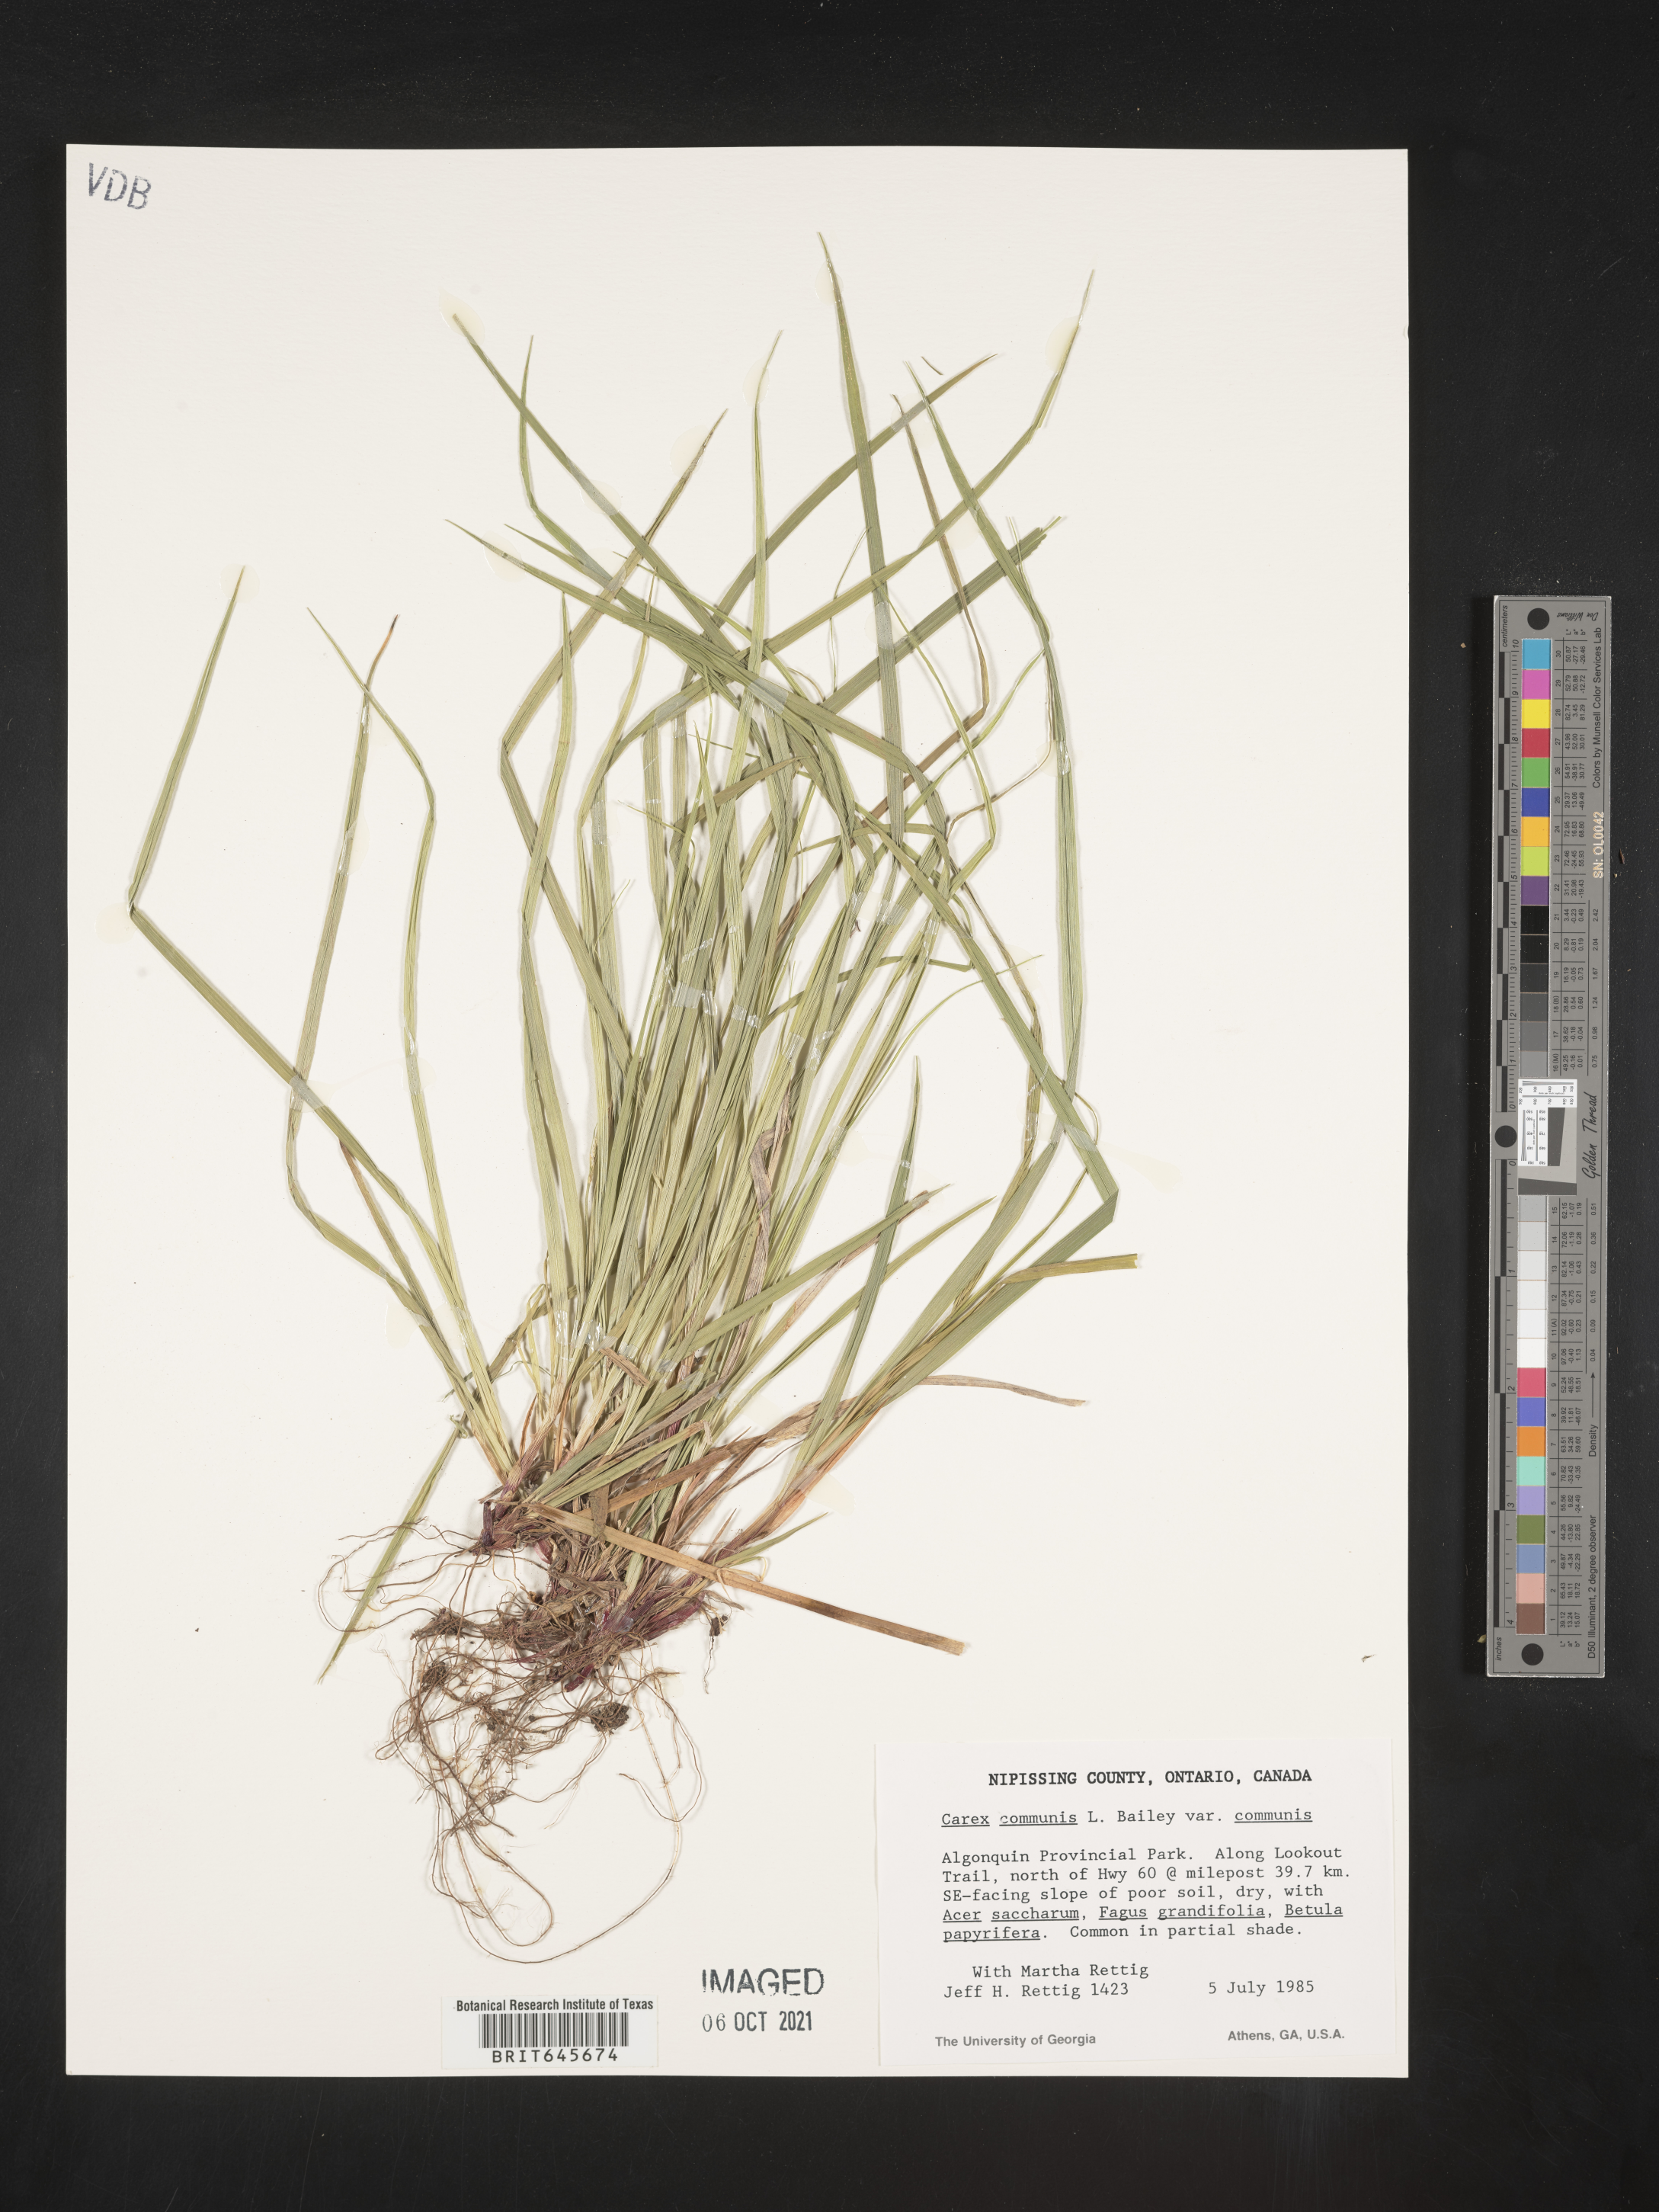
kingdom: Plantae
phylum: Tracheophyta
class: Liliopsida
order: Poales
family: Cyperaceae
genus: Carex
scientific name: Carex communis
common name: Colonial oak sedge
